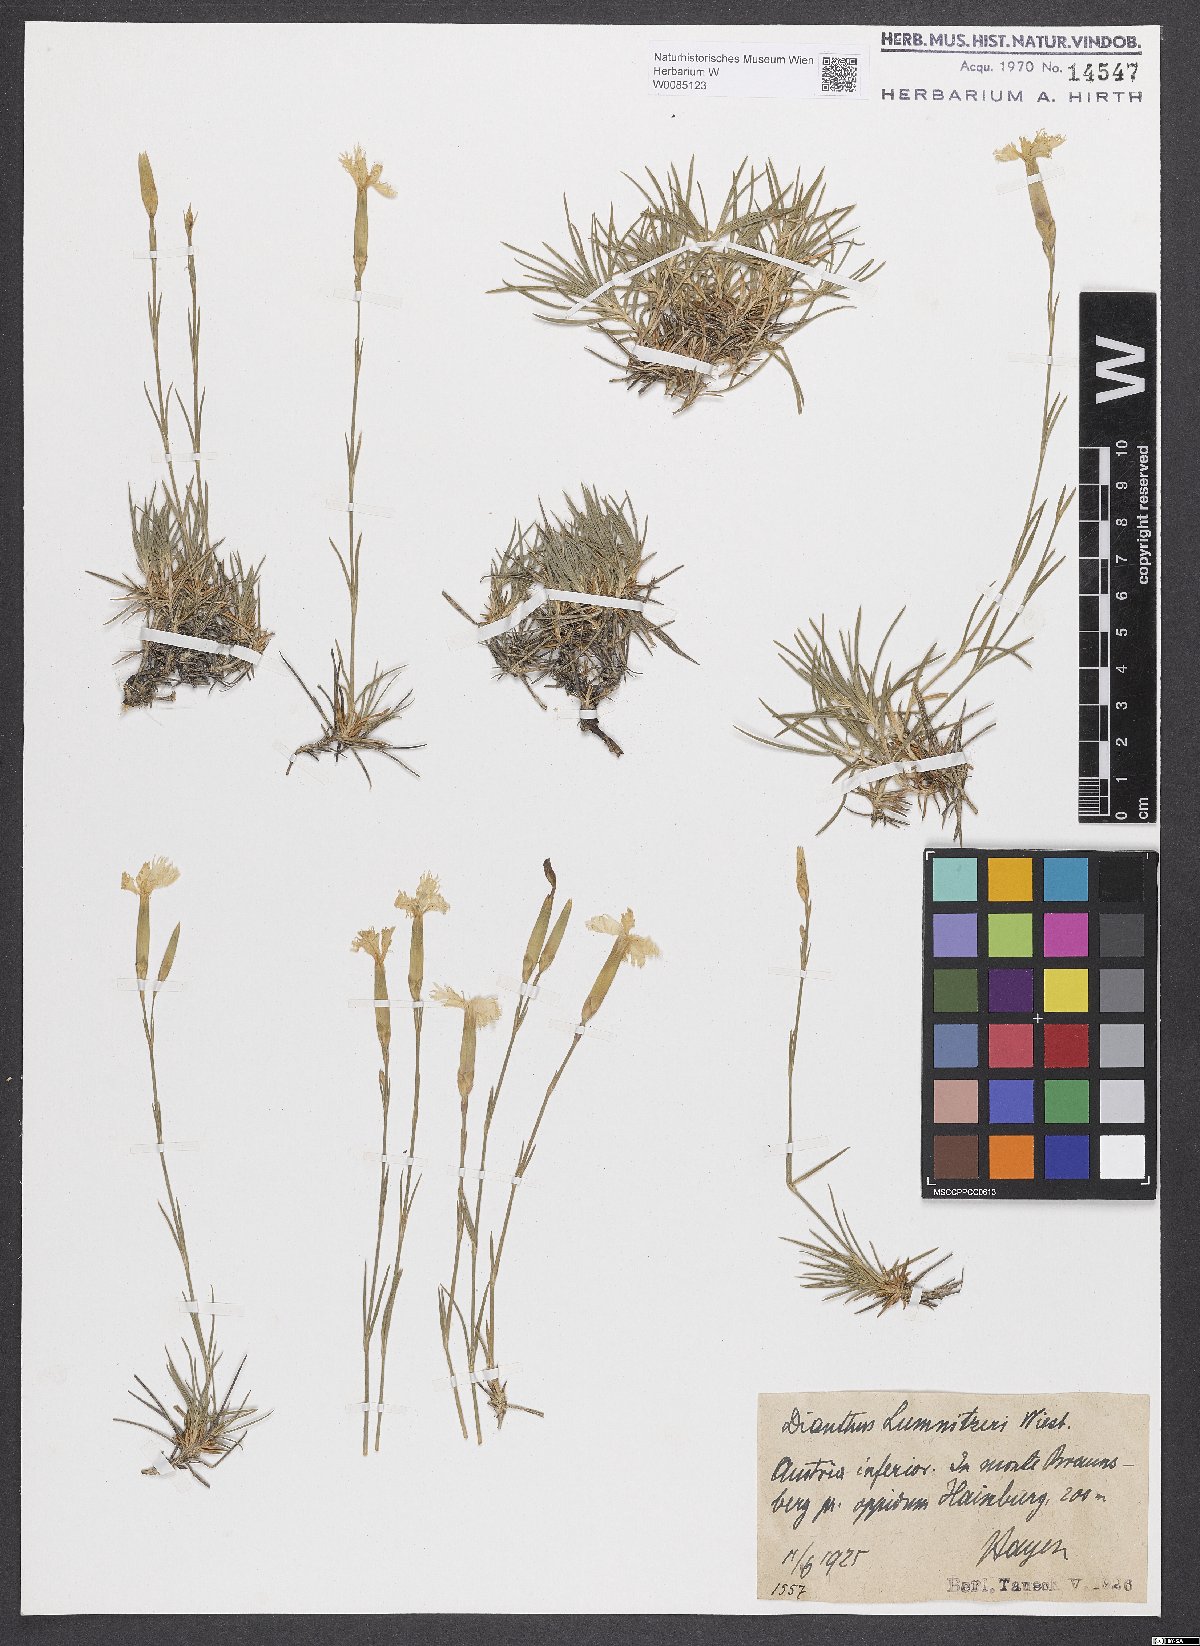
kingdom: Plantae
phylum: Tracheophyta
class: Magnoliopsida
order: Caryophyllales
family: Caryophyllaceae
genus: Dianthus
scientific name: Dianthus praecox
